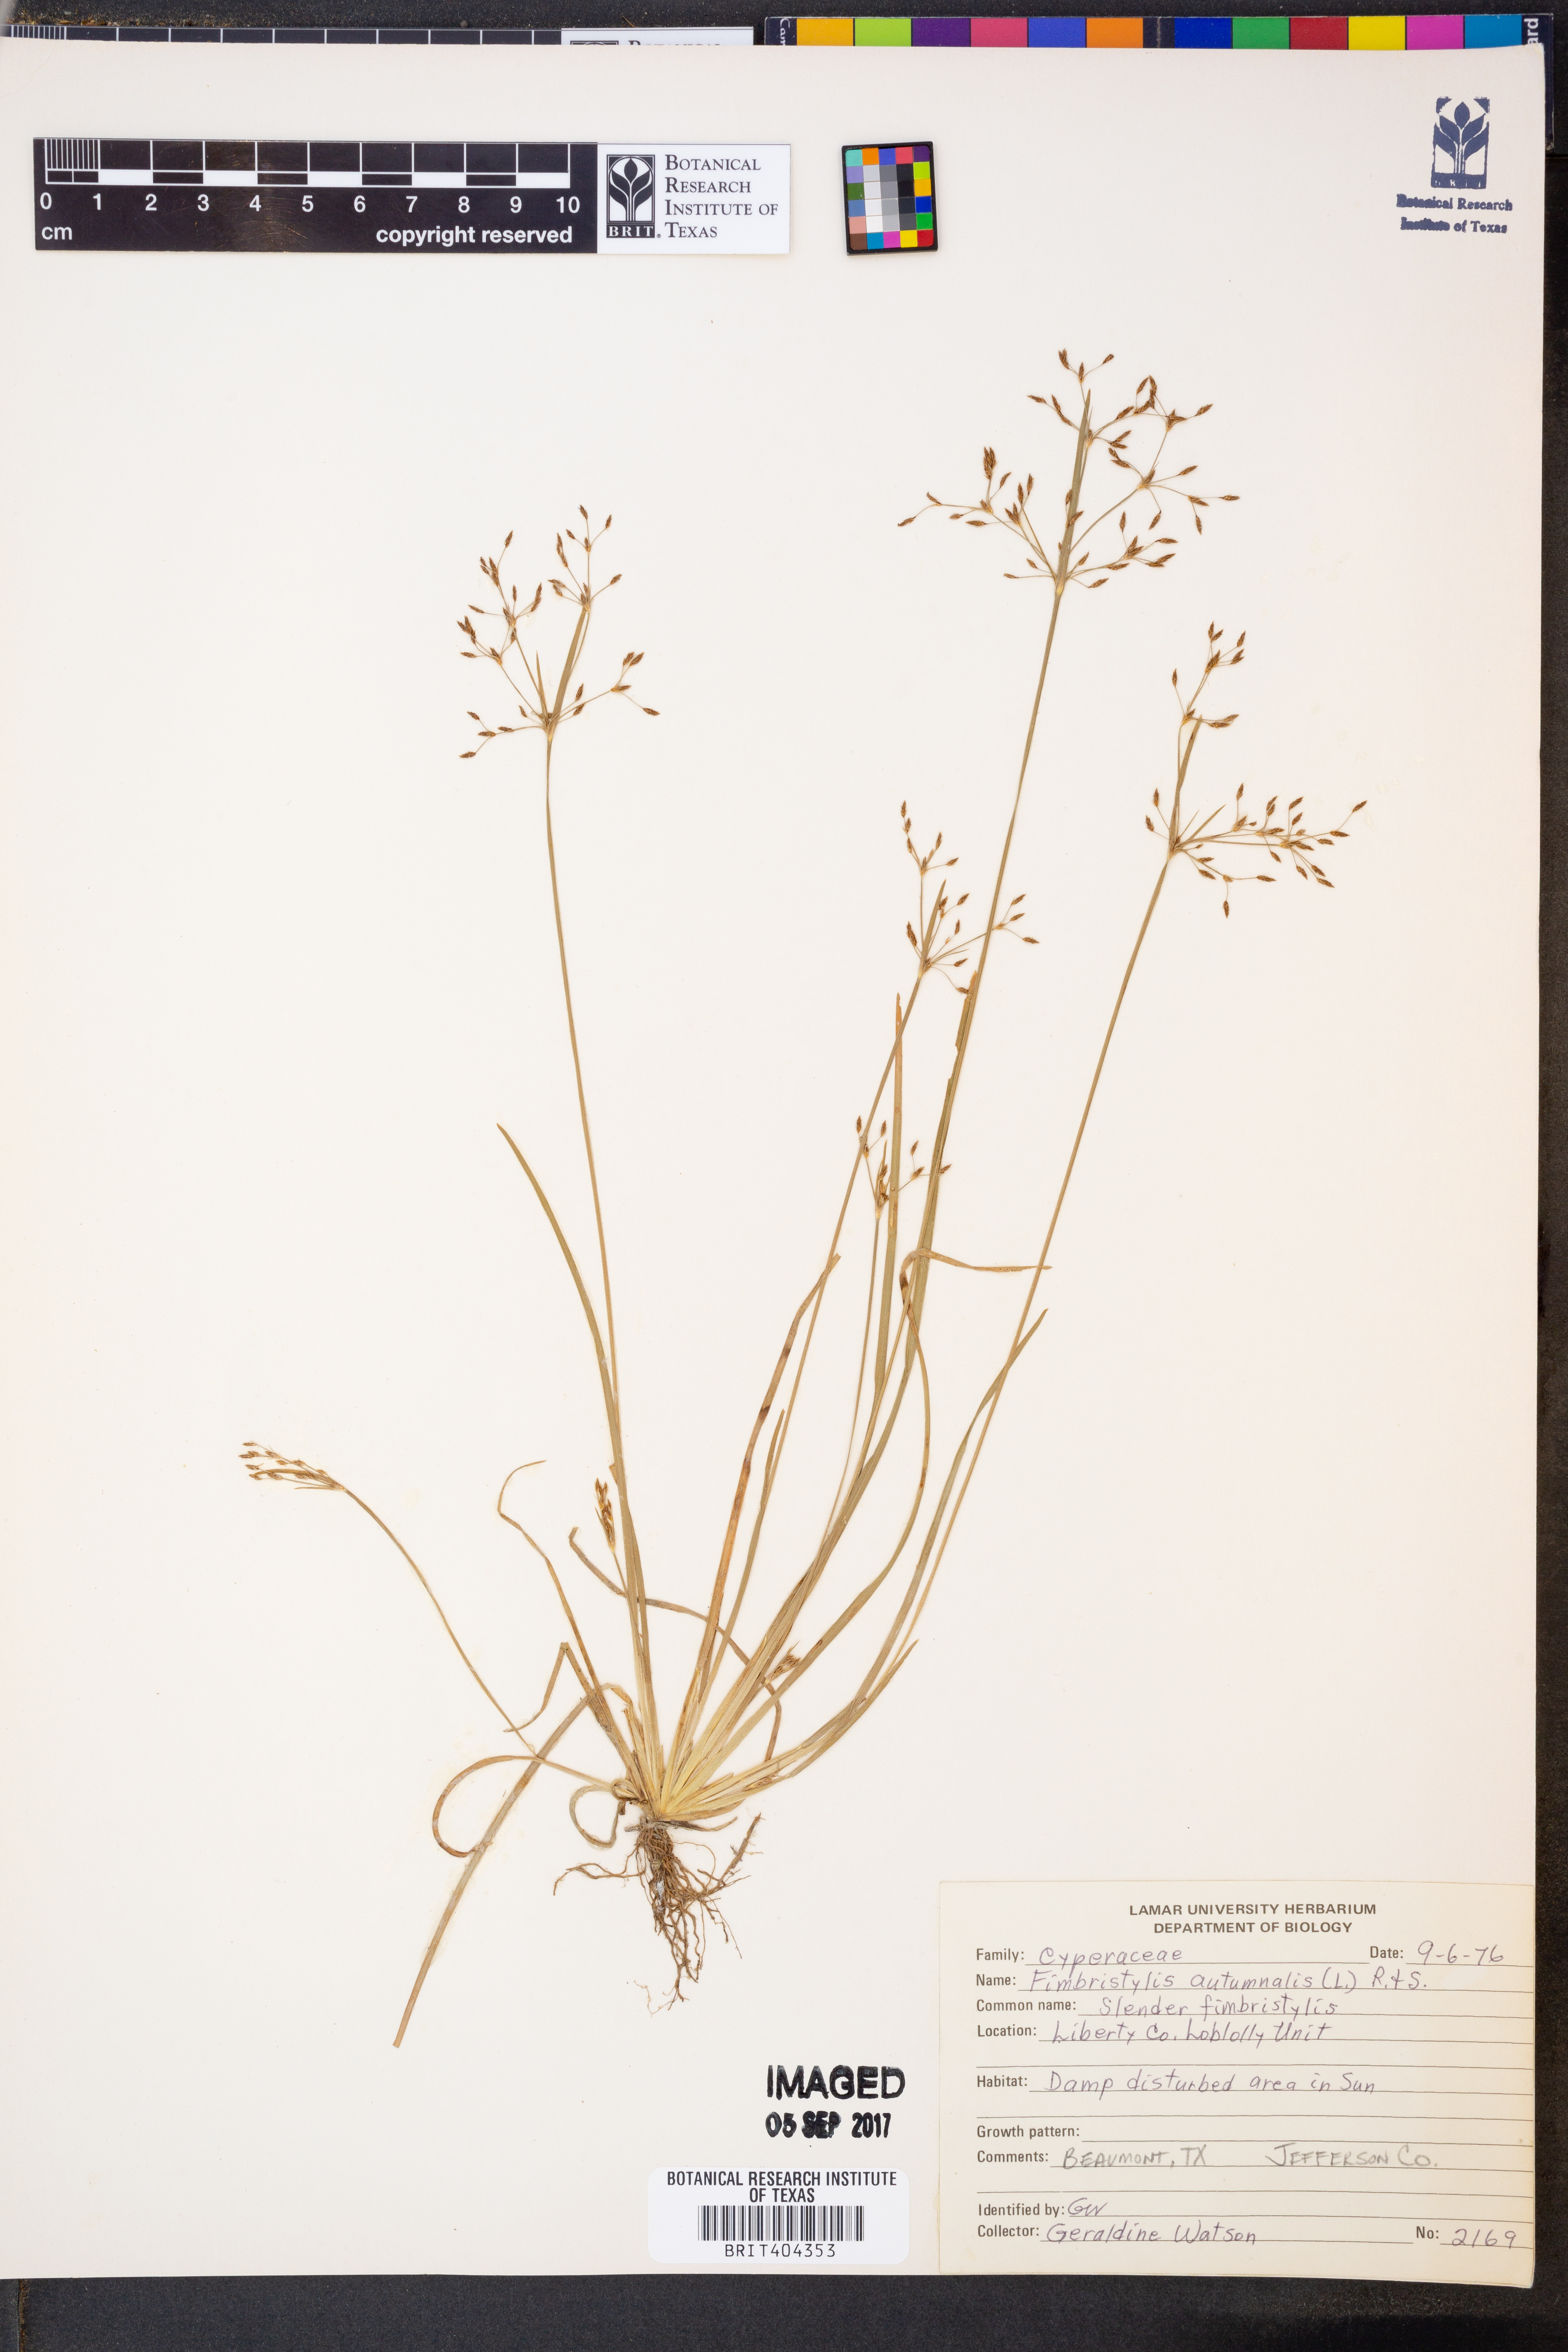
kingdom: Plantae
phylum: Tracheophyta
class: Liliopsida
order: Poales
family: Cyperaceae
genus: Fimbristylis
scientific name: Fimbristylis autumnalis
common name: Slender fimbristylis
